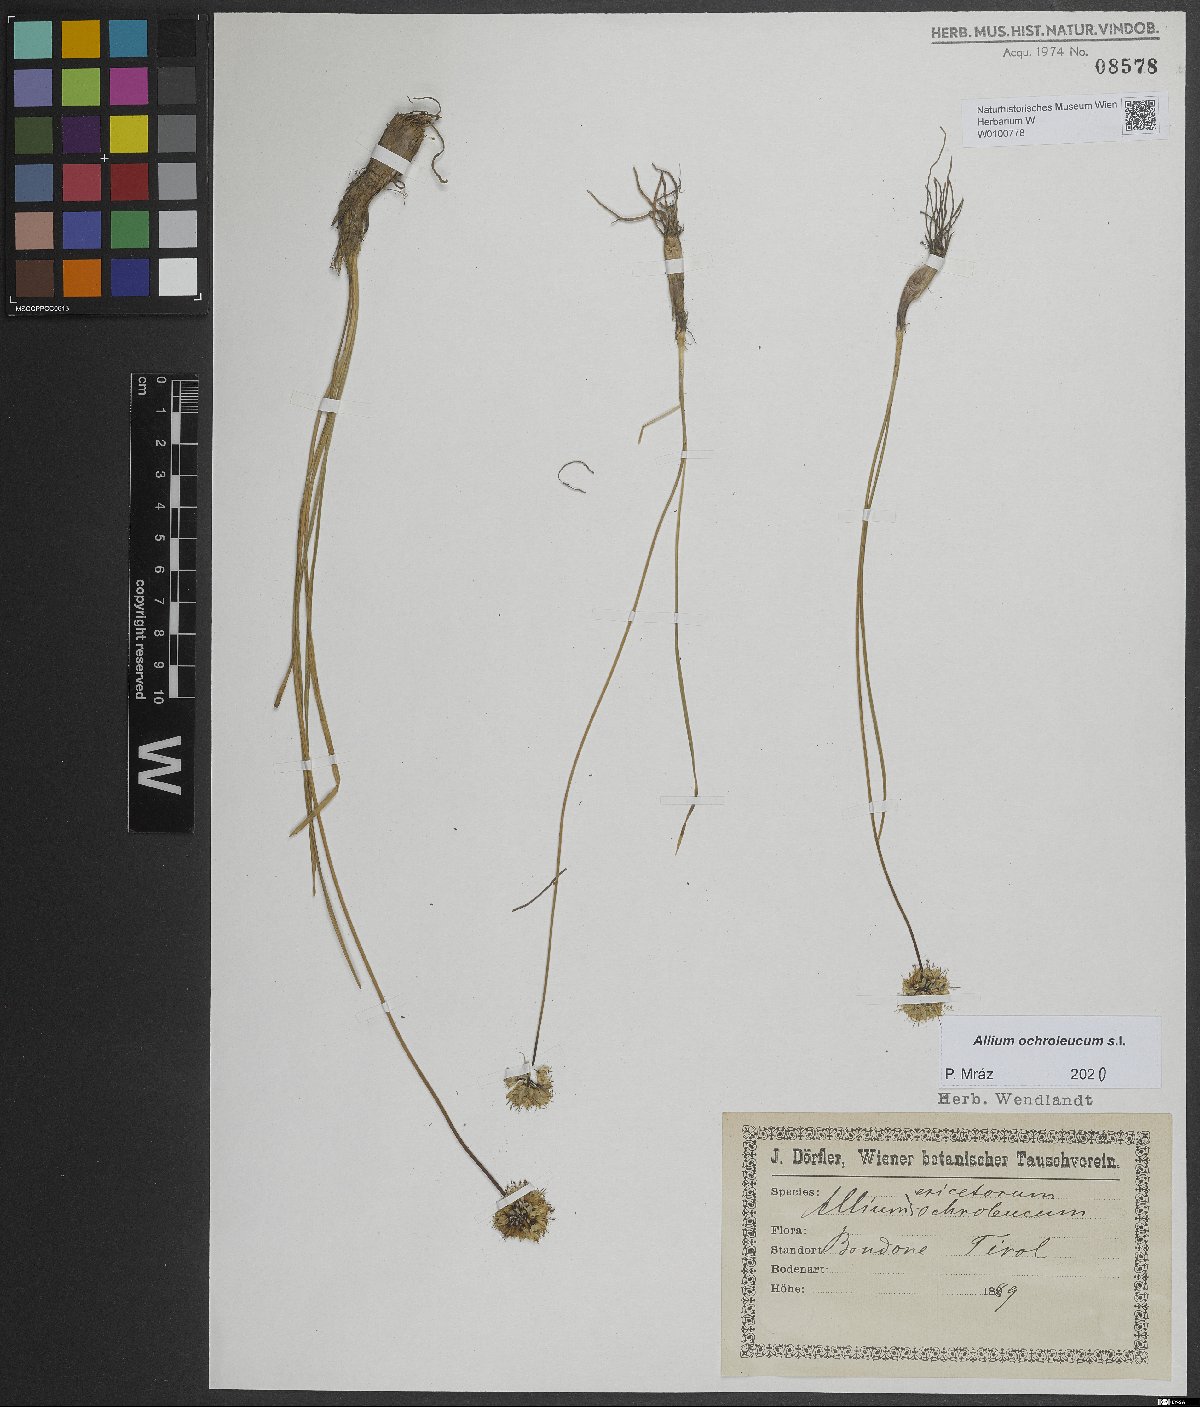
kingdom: Plantae
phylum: Tracheophyta
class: Liliopsida
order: Asparagales
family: Amaryllidaceae
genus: Allium
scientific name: Allium ericetorum
